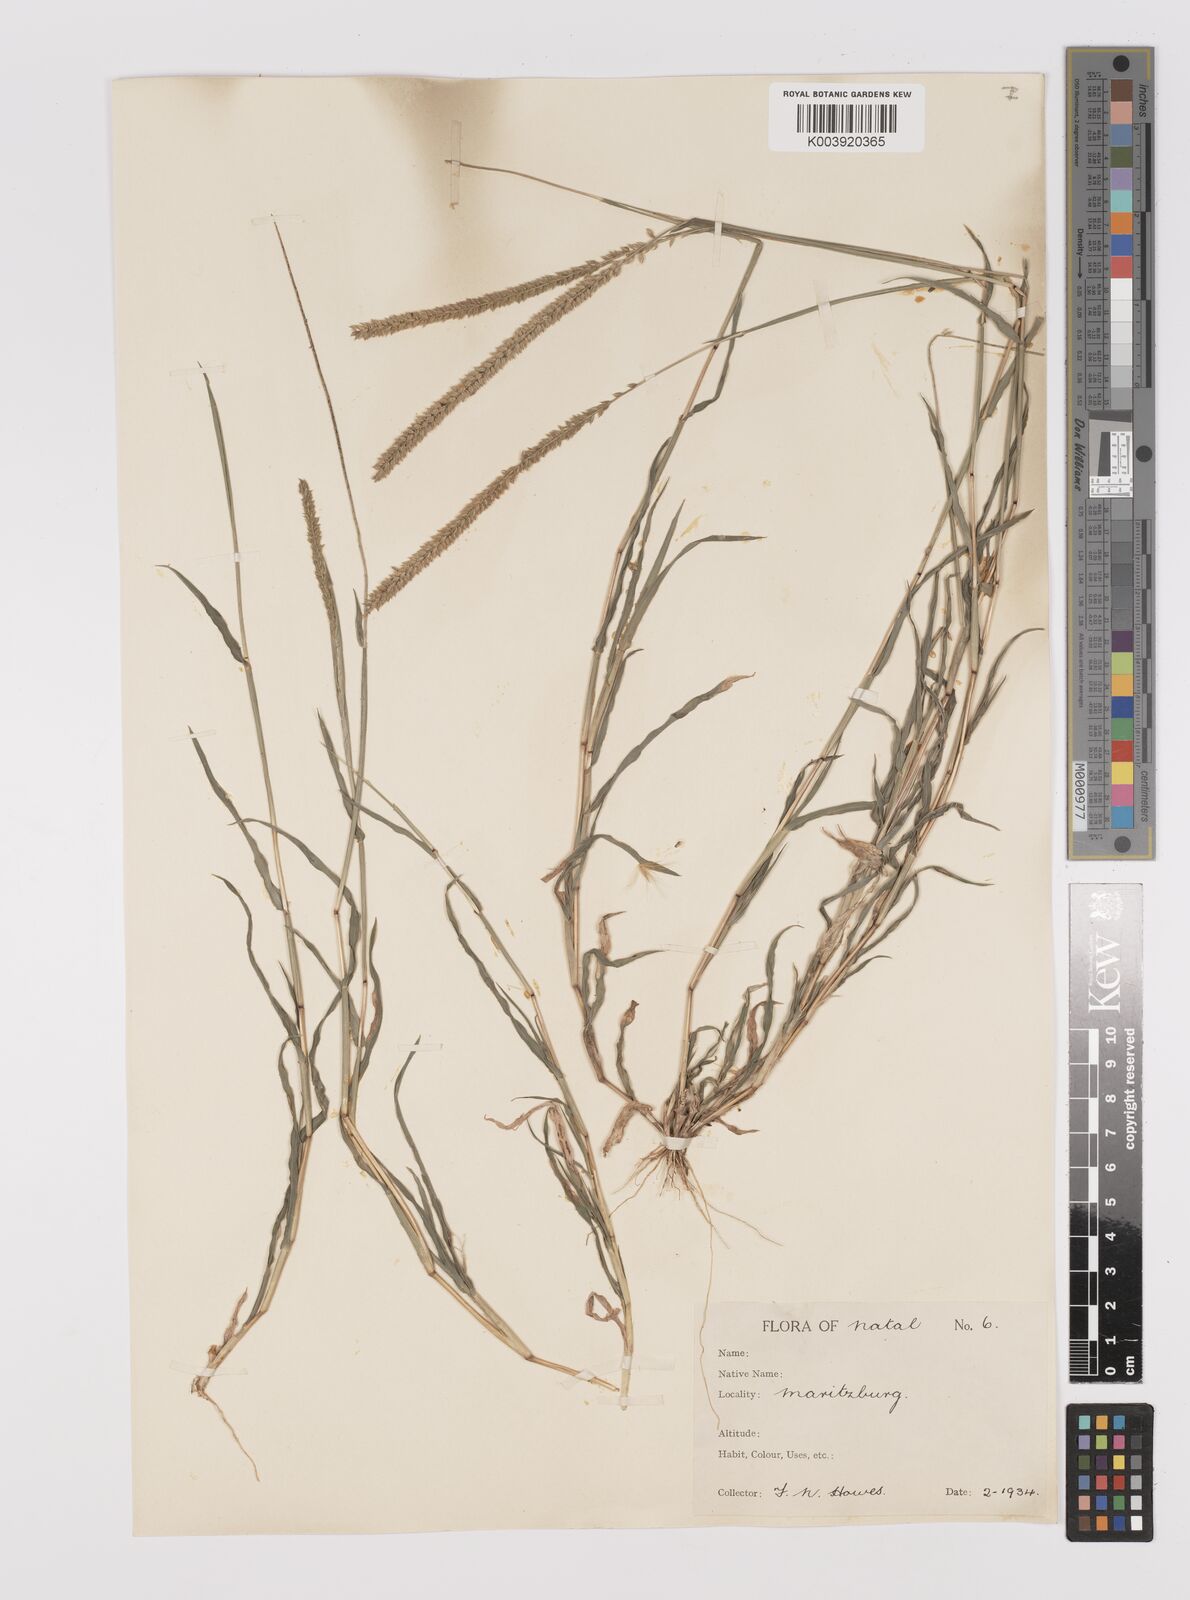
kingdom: Plantae
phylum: Tracheophyta
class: Liliopsida
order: Poales
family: Poaceae
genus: Tragus
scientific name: Tragus berteronianus
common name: African bur-grass
